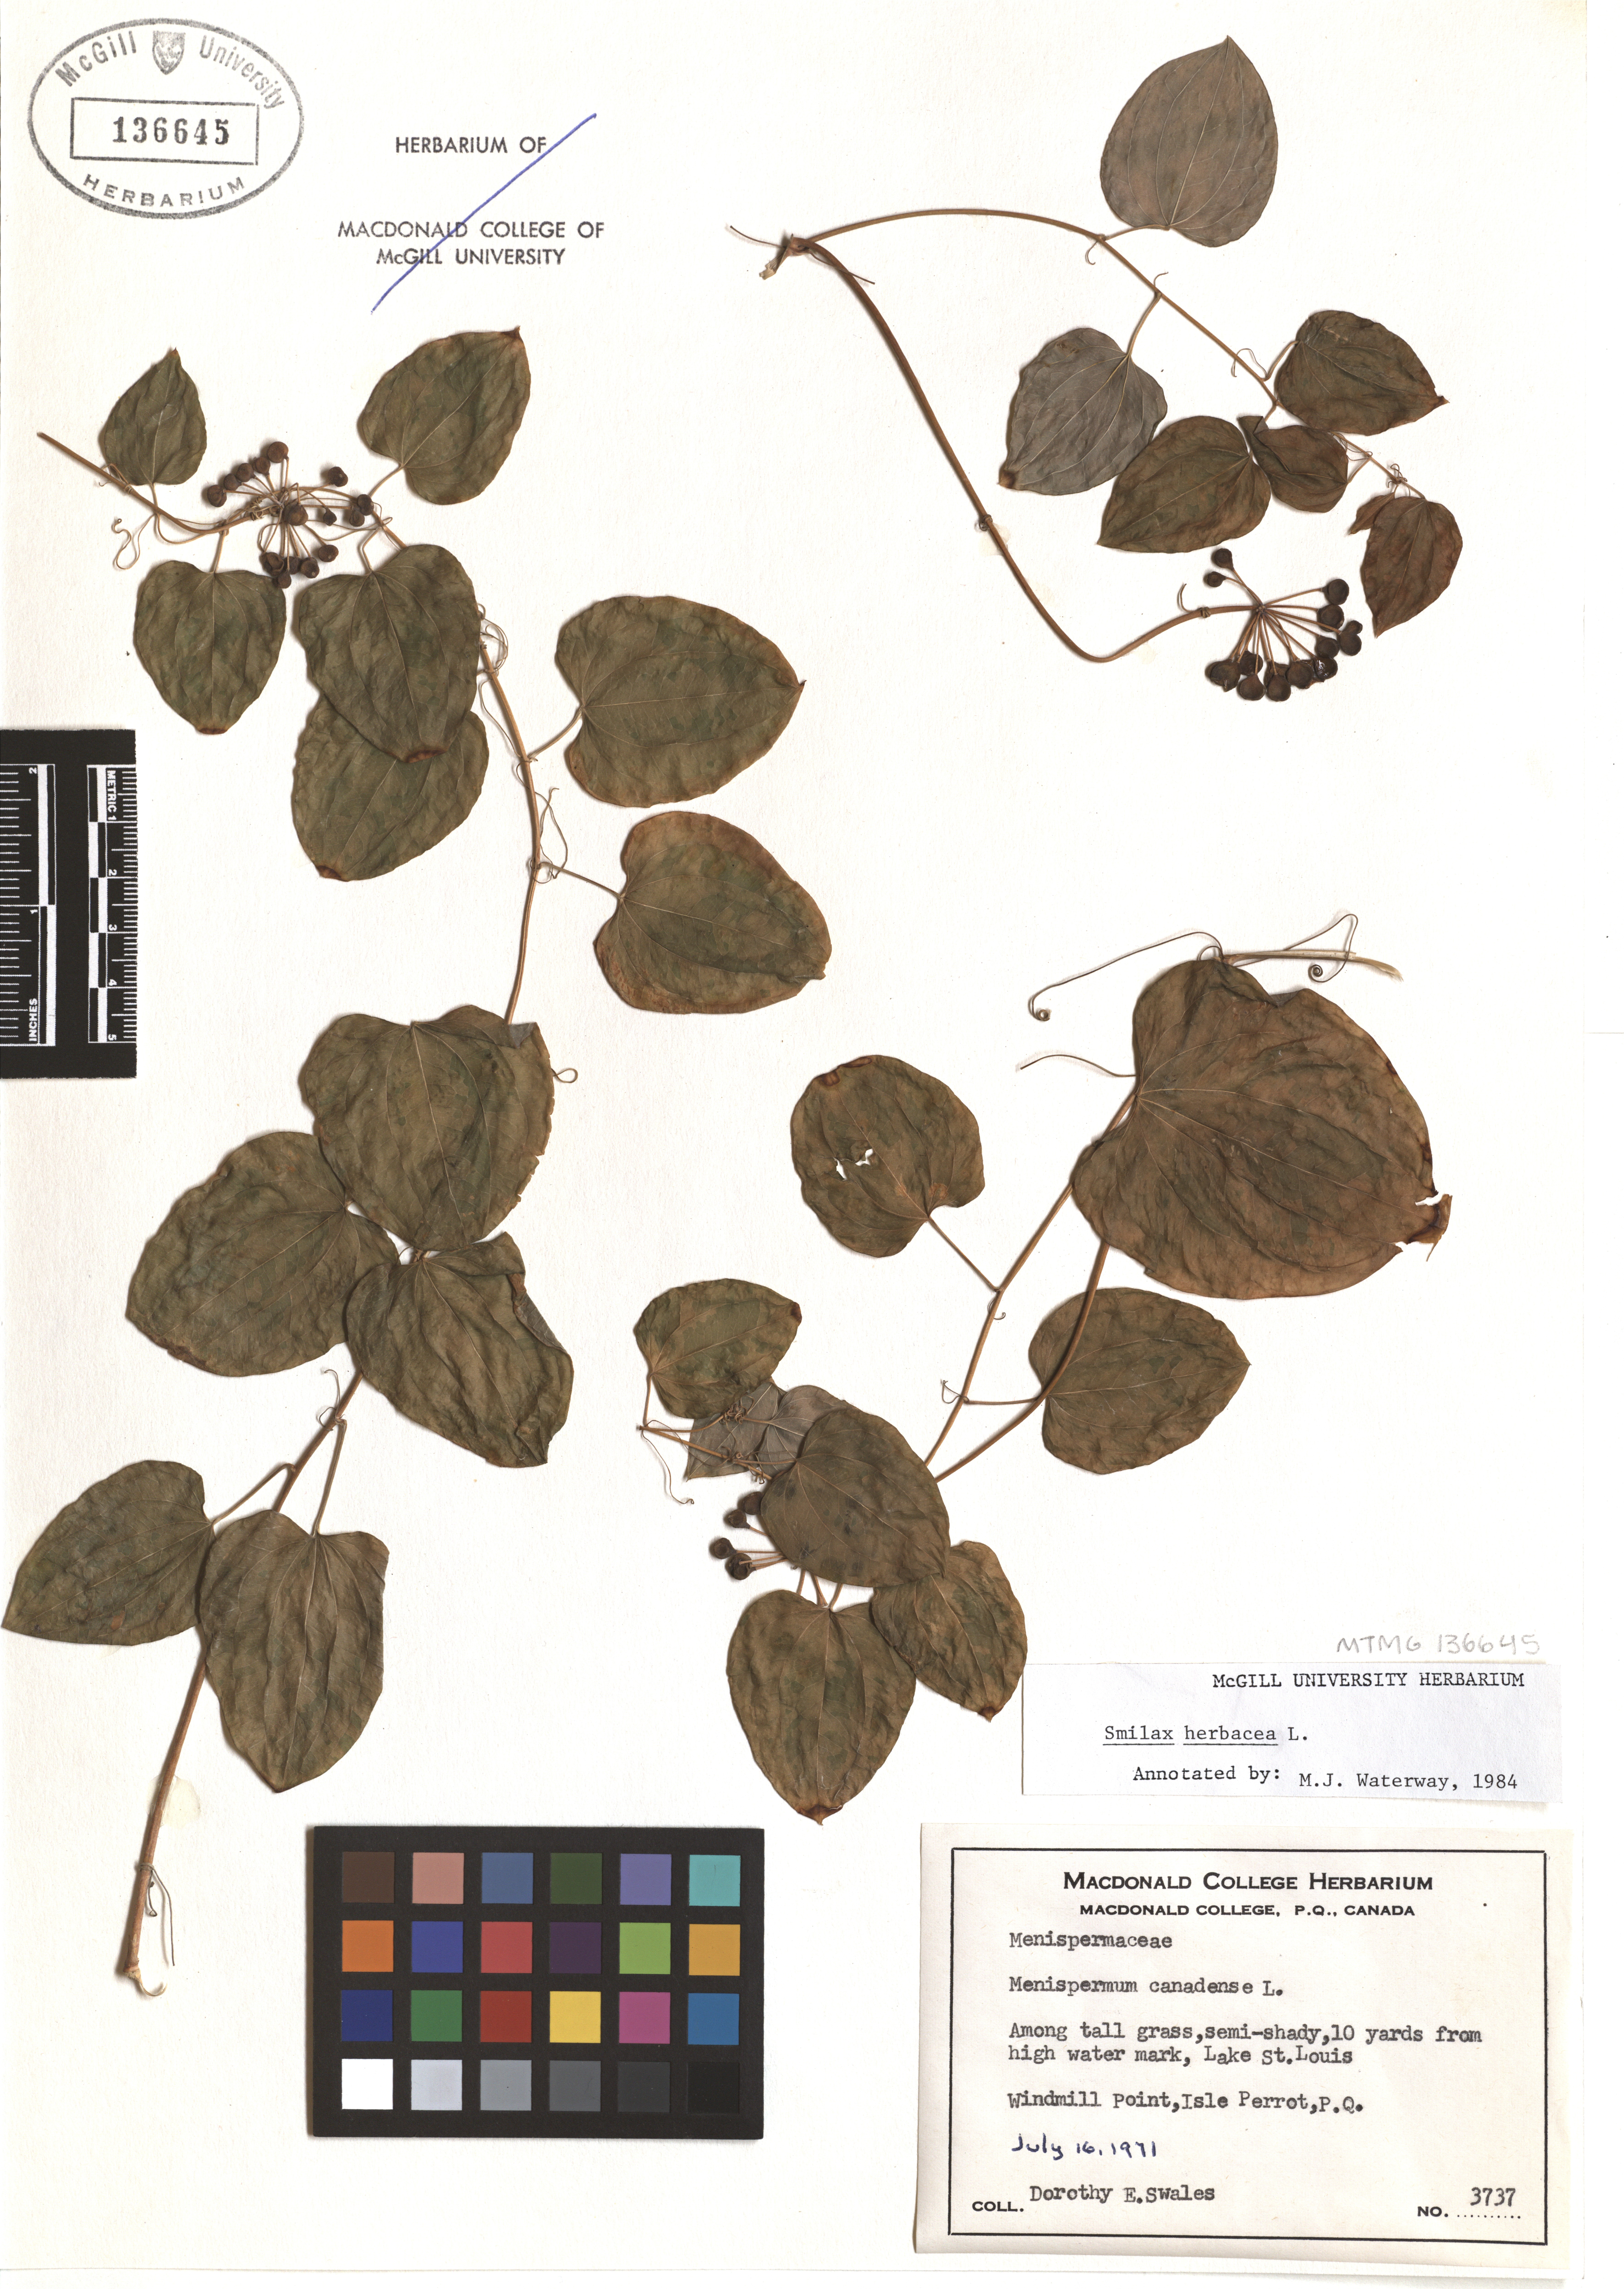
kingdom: Plantae
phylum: Tracheophyta
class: Liliopsida
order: Liliales
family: Smilacaceae
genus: Smilax
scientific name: Smilax herbacea
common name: Jacob's-ladder
